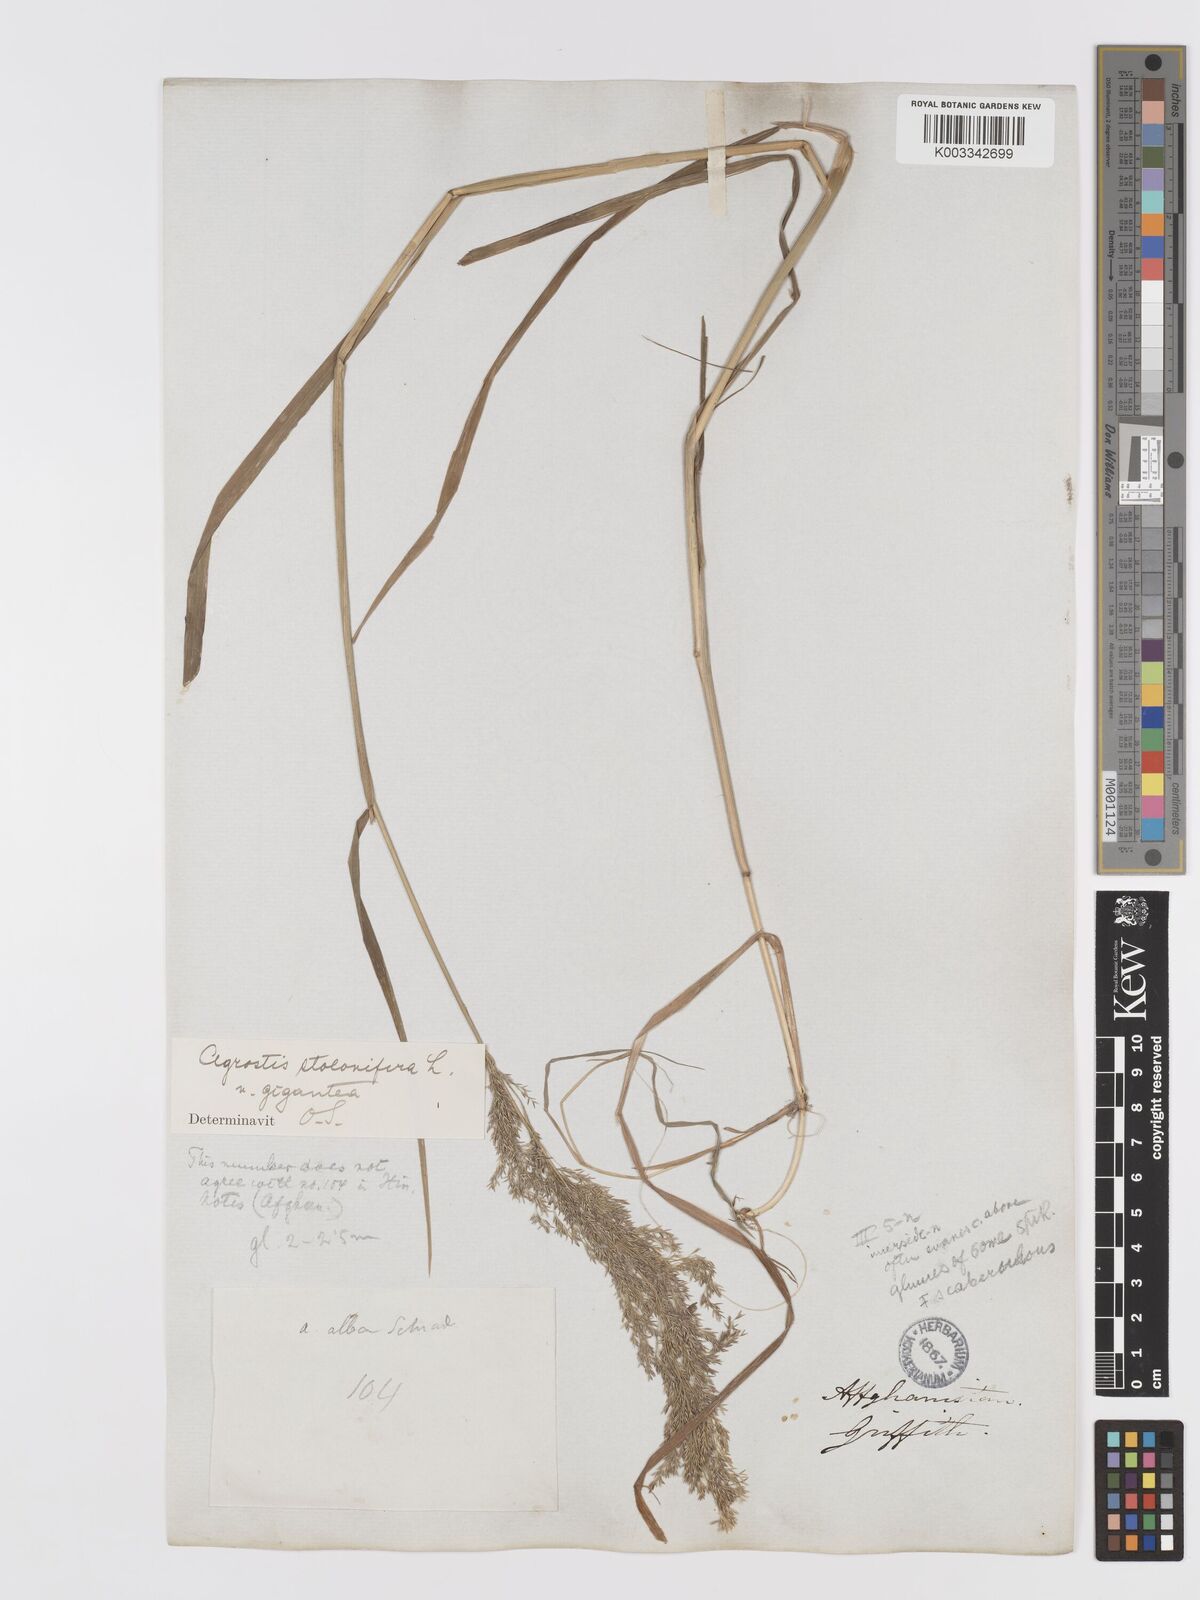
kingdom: Plantae
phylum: Tracheophyta
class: Liliopsida
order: Poales
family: Poaceae
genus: Agrostis
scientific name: Agrostis gigantea
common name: Black bent
